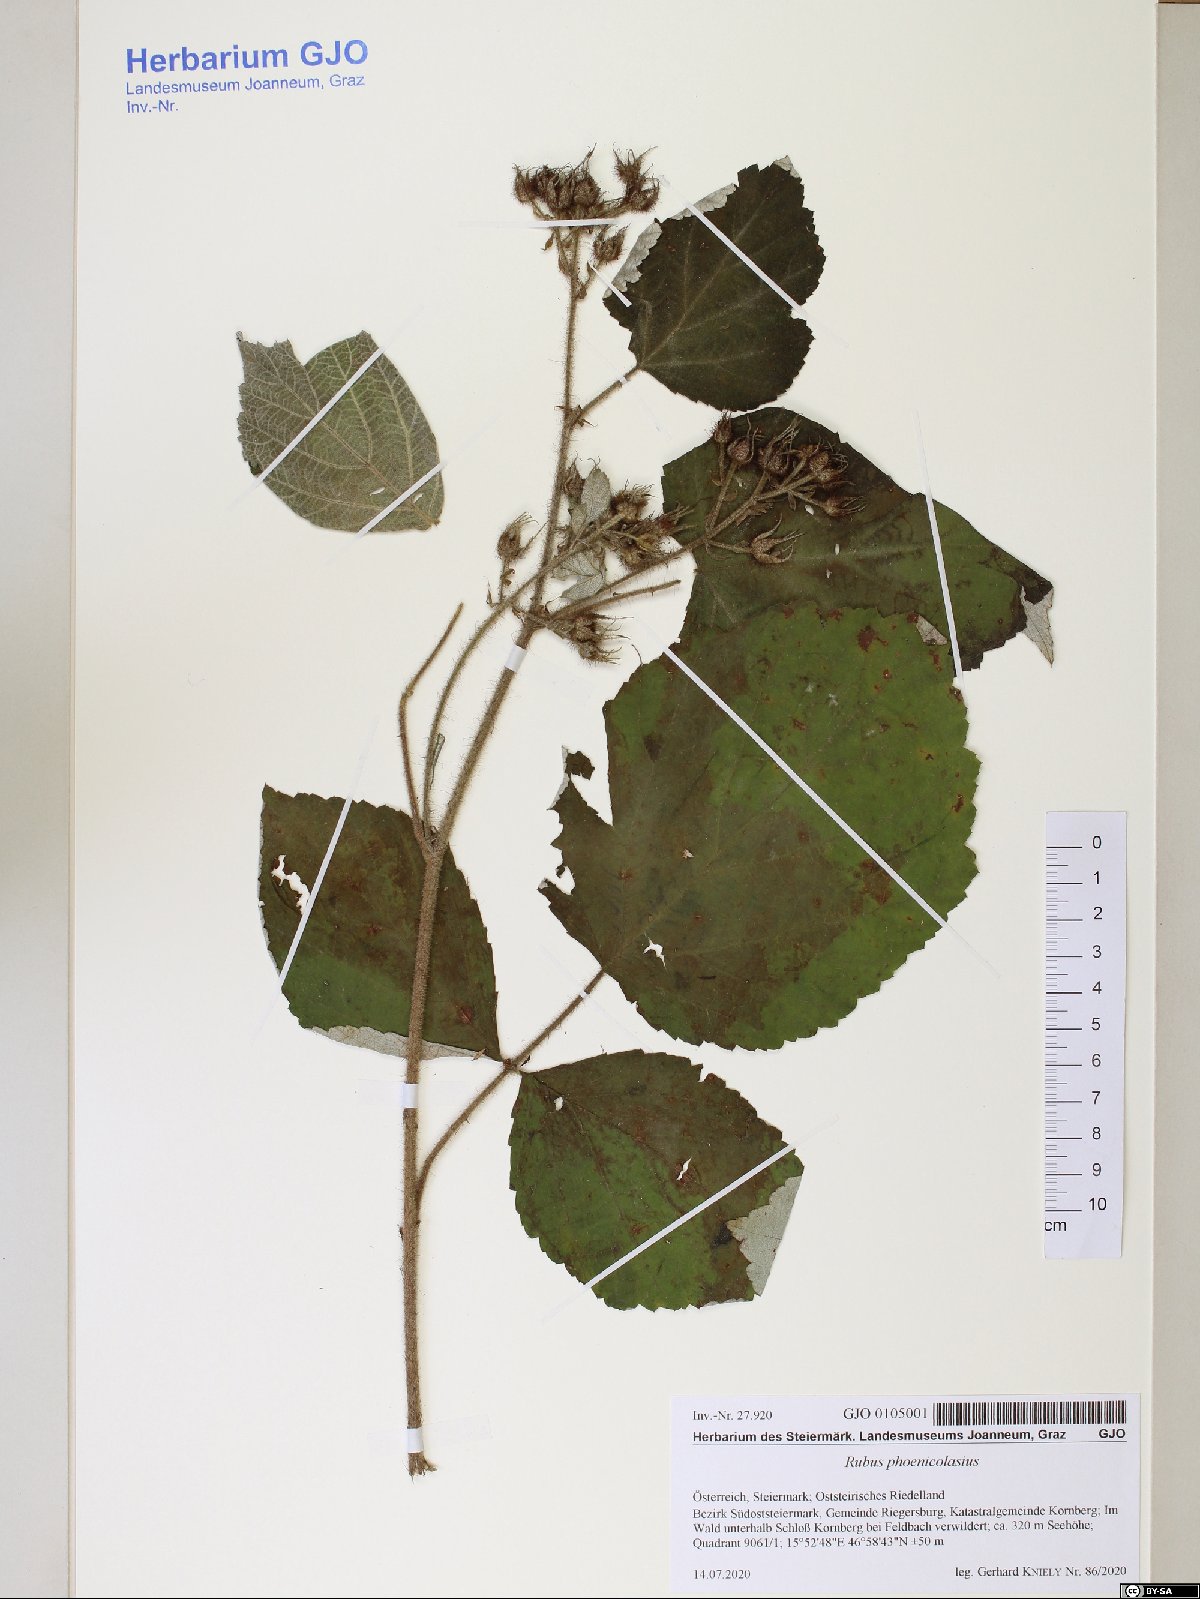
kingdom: Plantae
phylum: Tracheophyta
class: Magnoliopsida
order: Rosales
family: Rosaceae
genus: Rubus
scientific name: Rubus phoenicolasius
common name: Japanese wineberry
